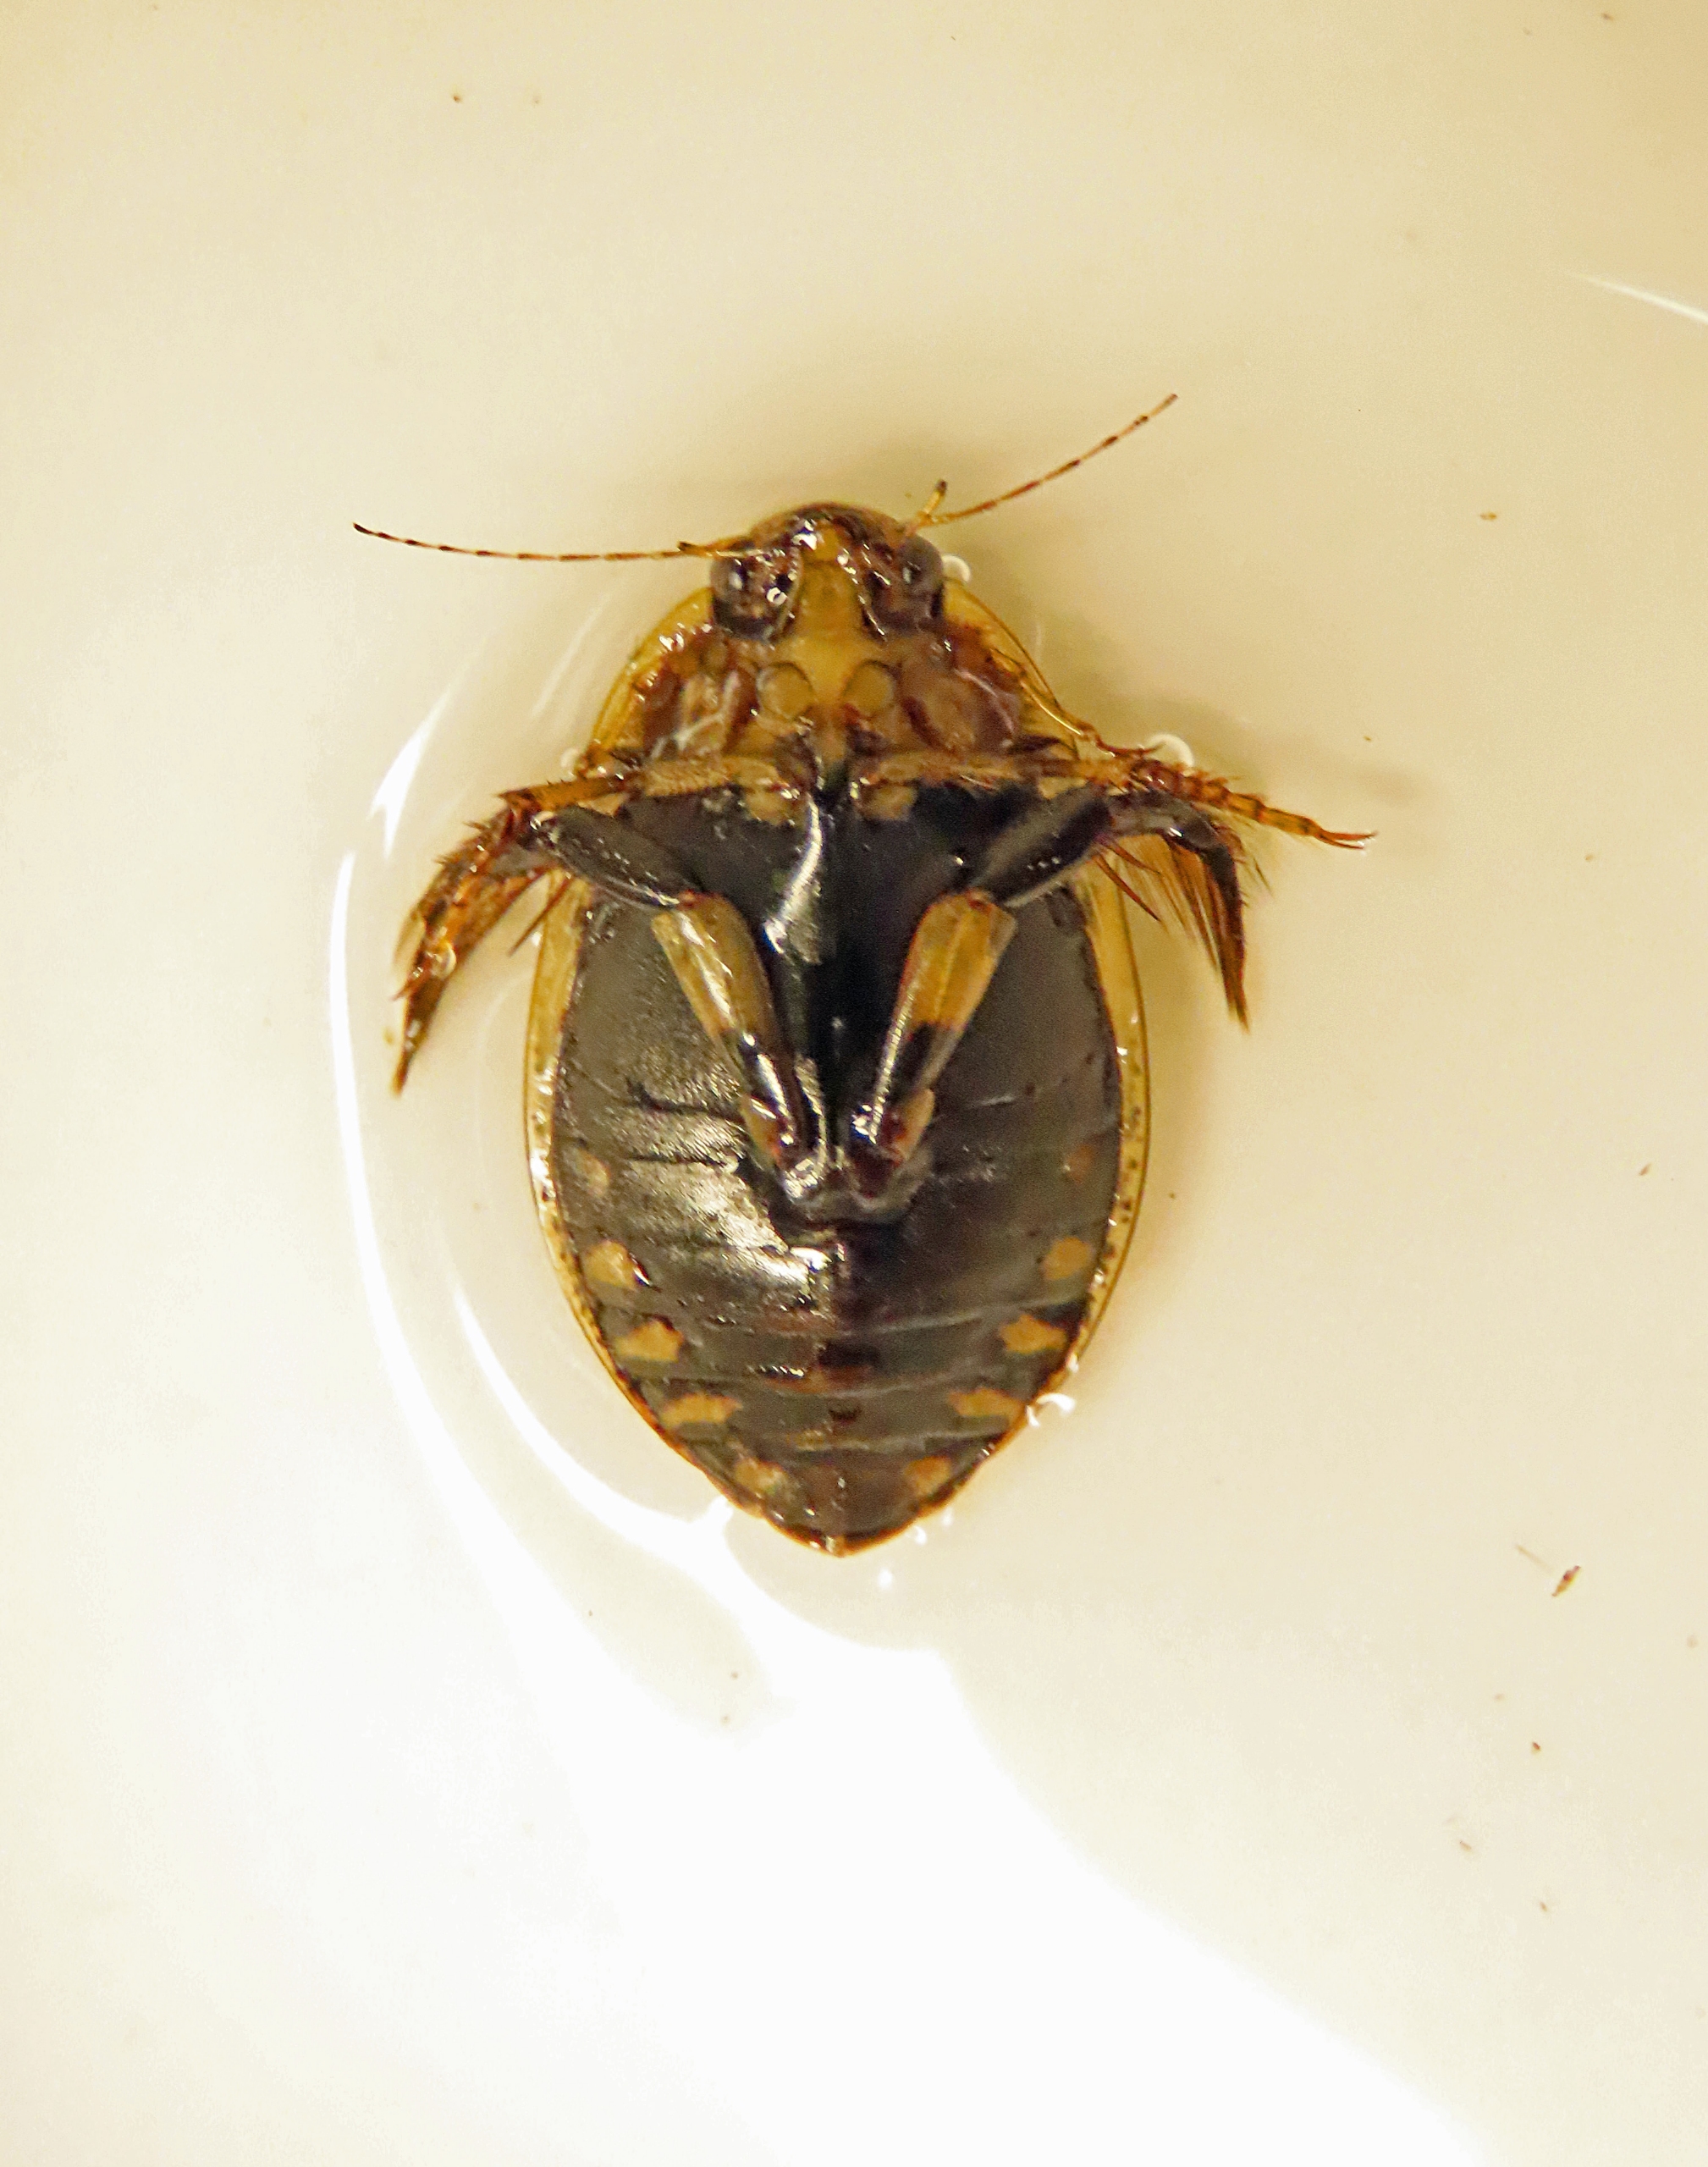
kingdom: Animalia
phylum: Arthropoda
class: Insecta
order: Coleoptera
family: Dytiscidae
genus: Acilius
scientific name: Acilius sulcatus
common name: Stribet skivevandkalv
